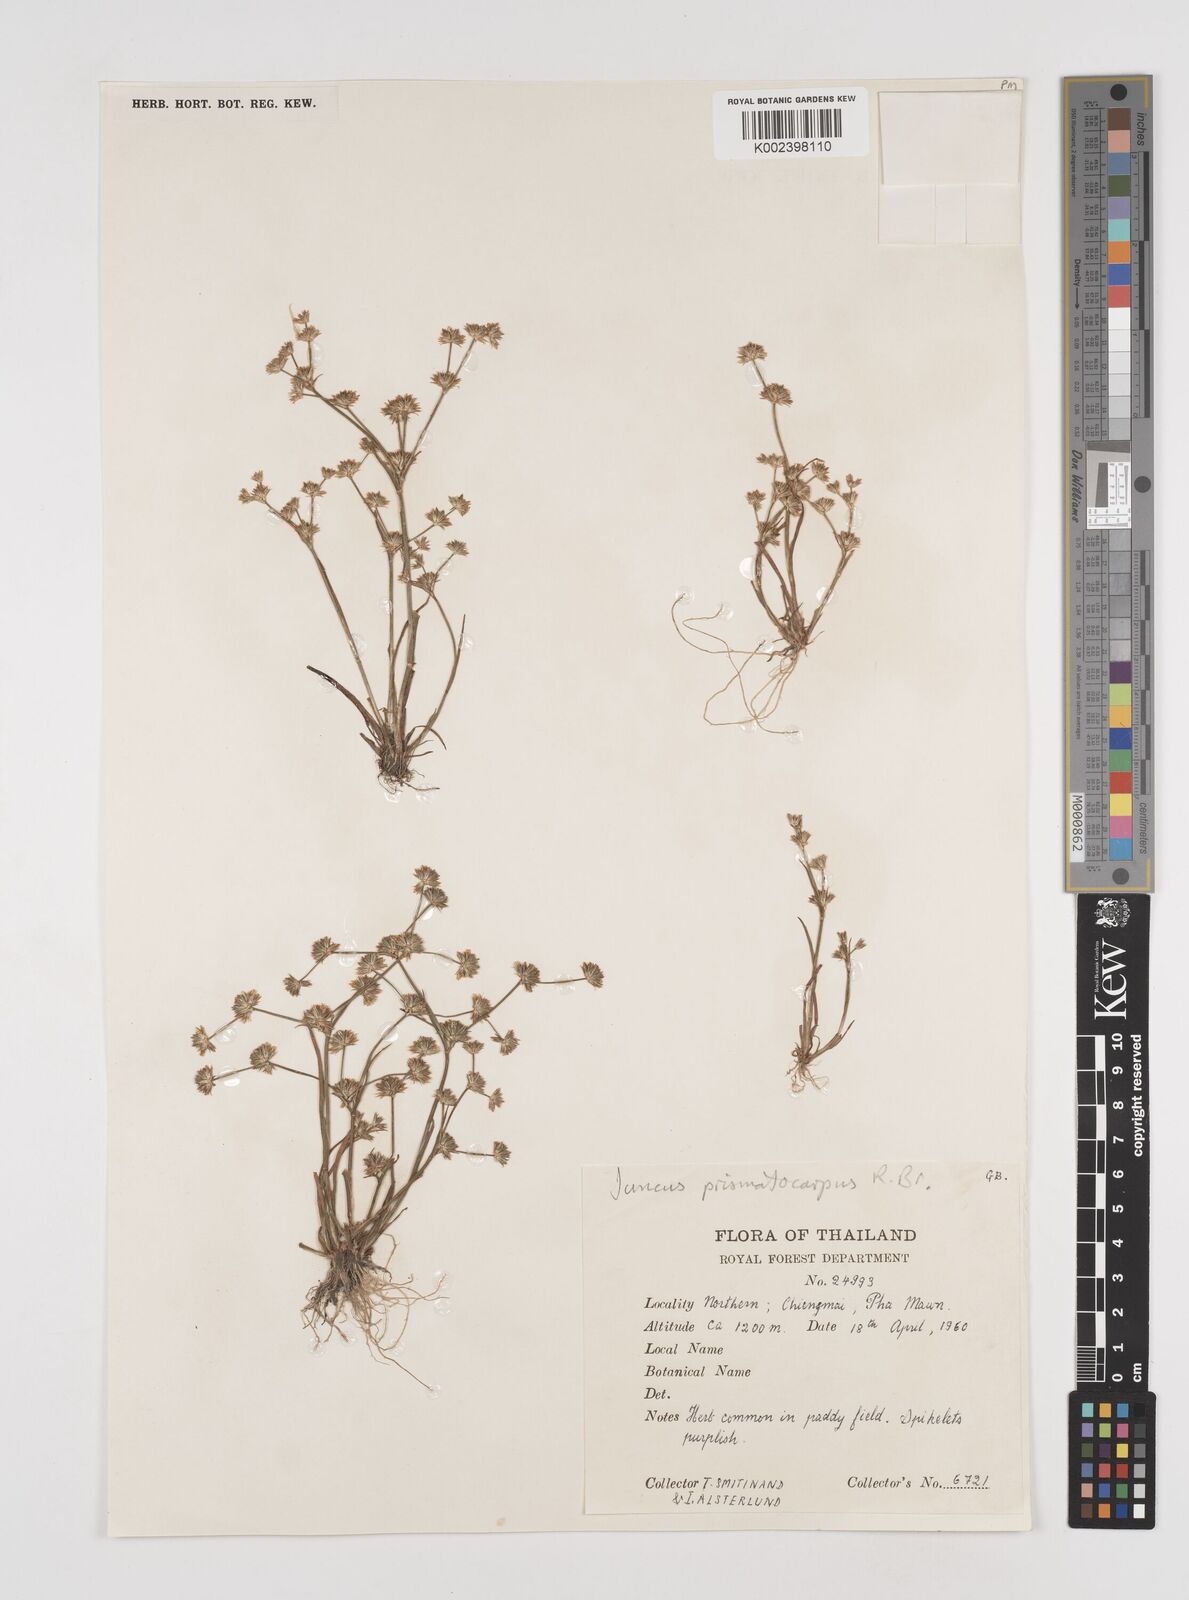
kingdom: Plantae
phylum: Tracheophyta
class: Liliopsida
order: Poales
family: Juncaceae
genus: Juncus
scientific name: Juncus prismatocarpus
